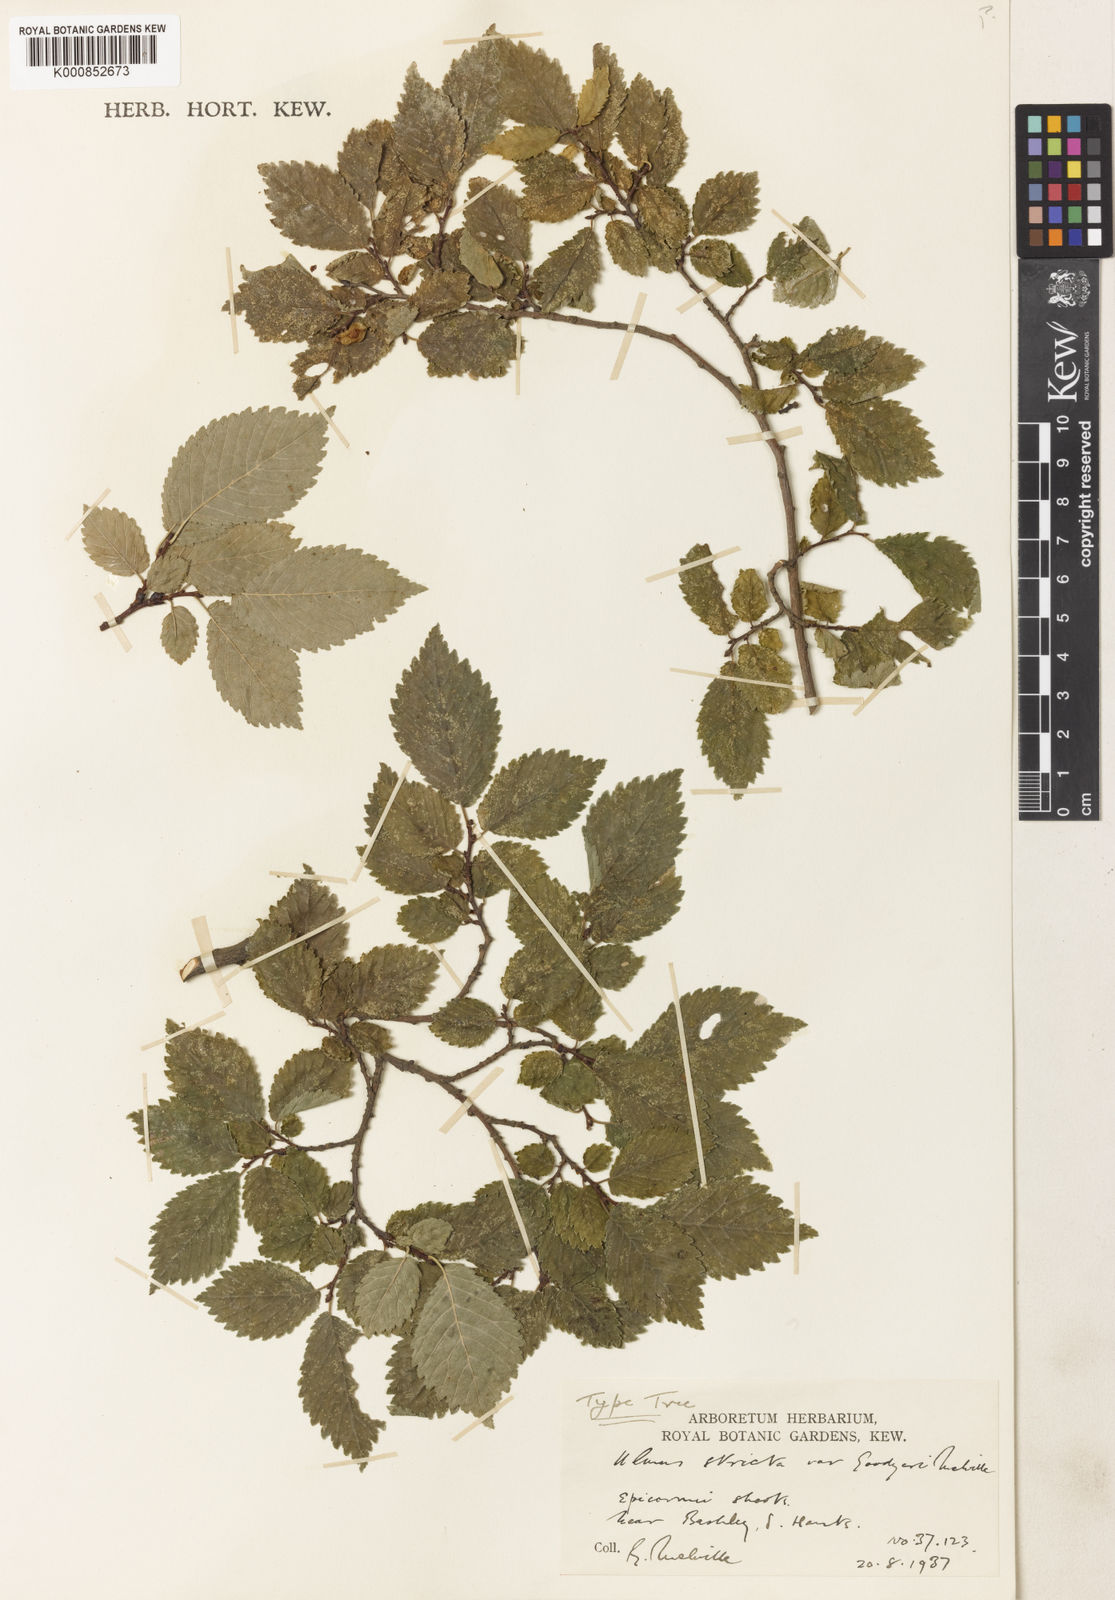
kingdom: Plantae
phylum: Tracheophyta
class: Magnoliopsida
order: Rosales
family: Ulmaceae
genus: Ulmus
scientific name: Ulmus
